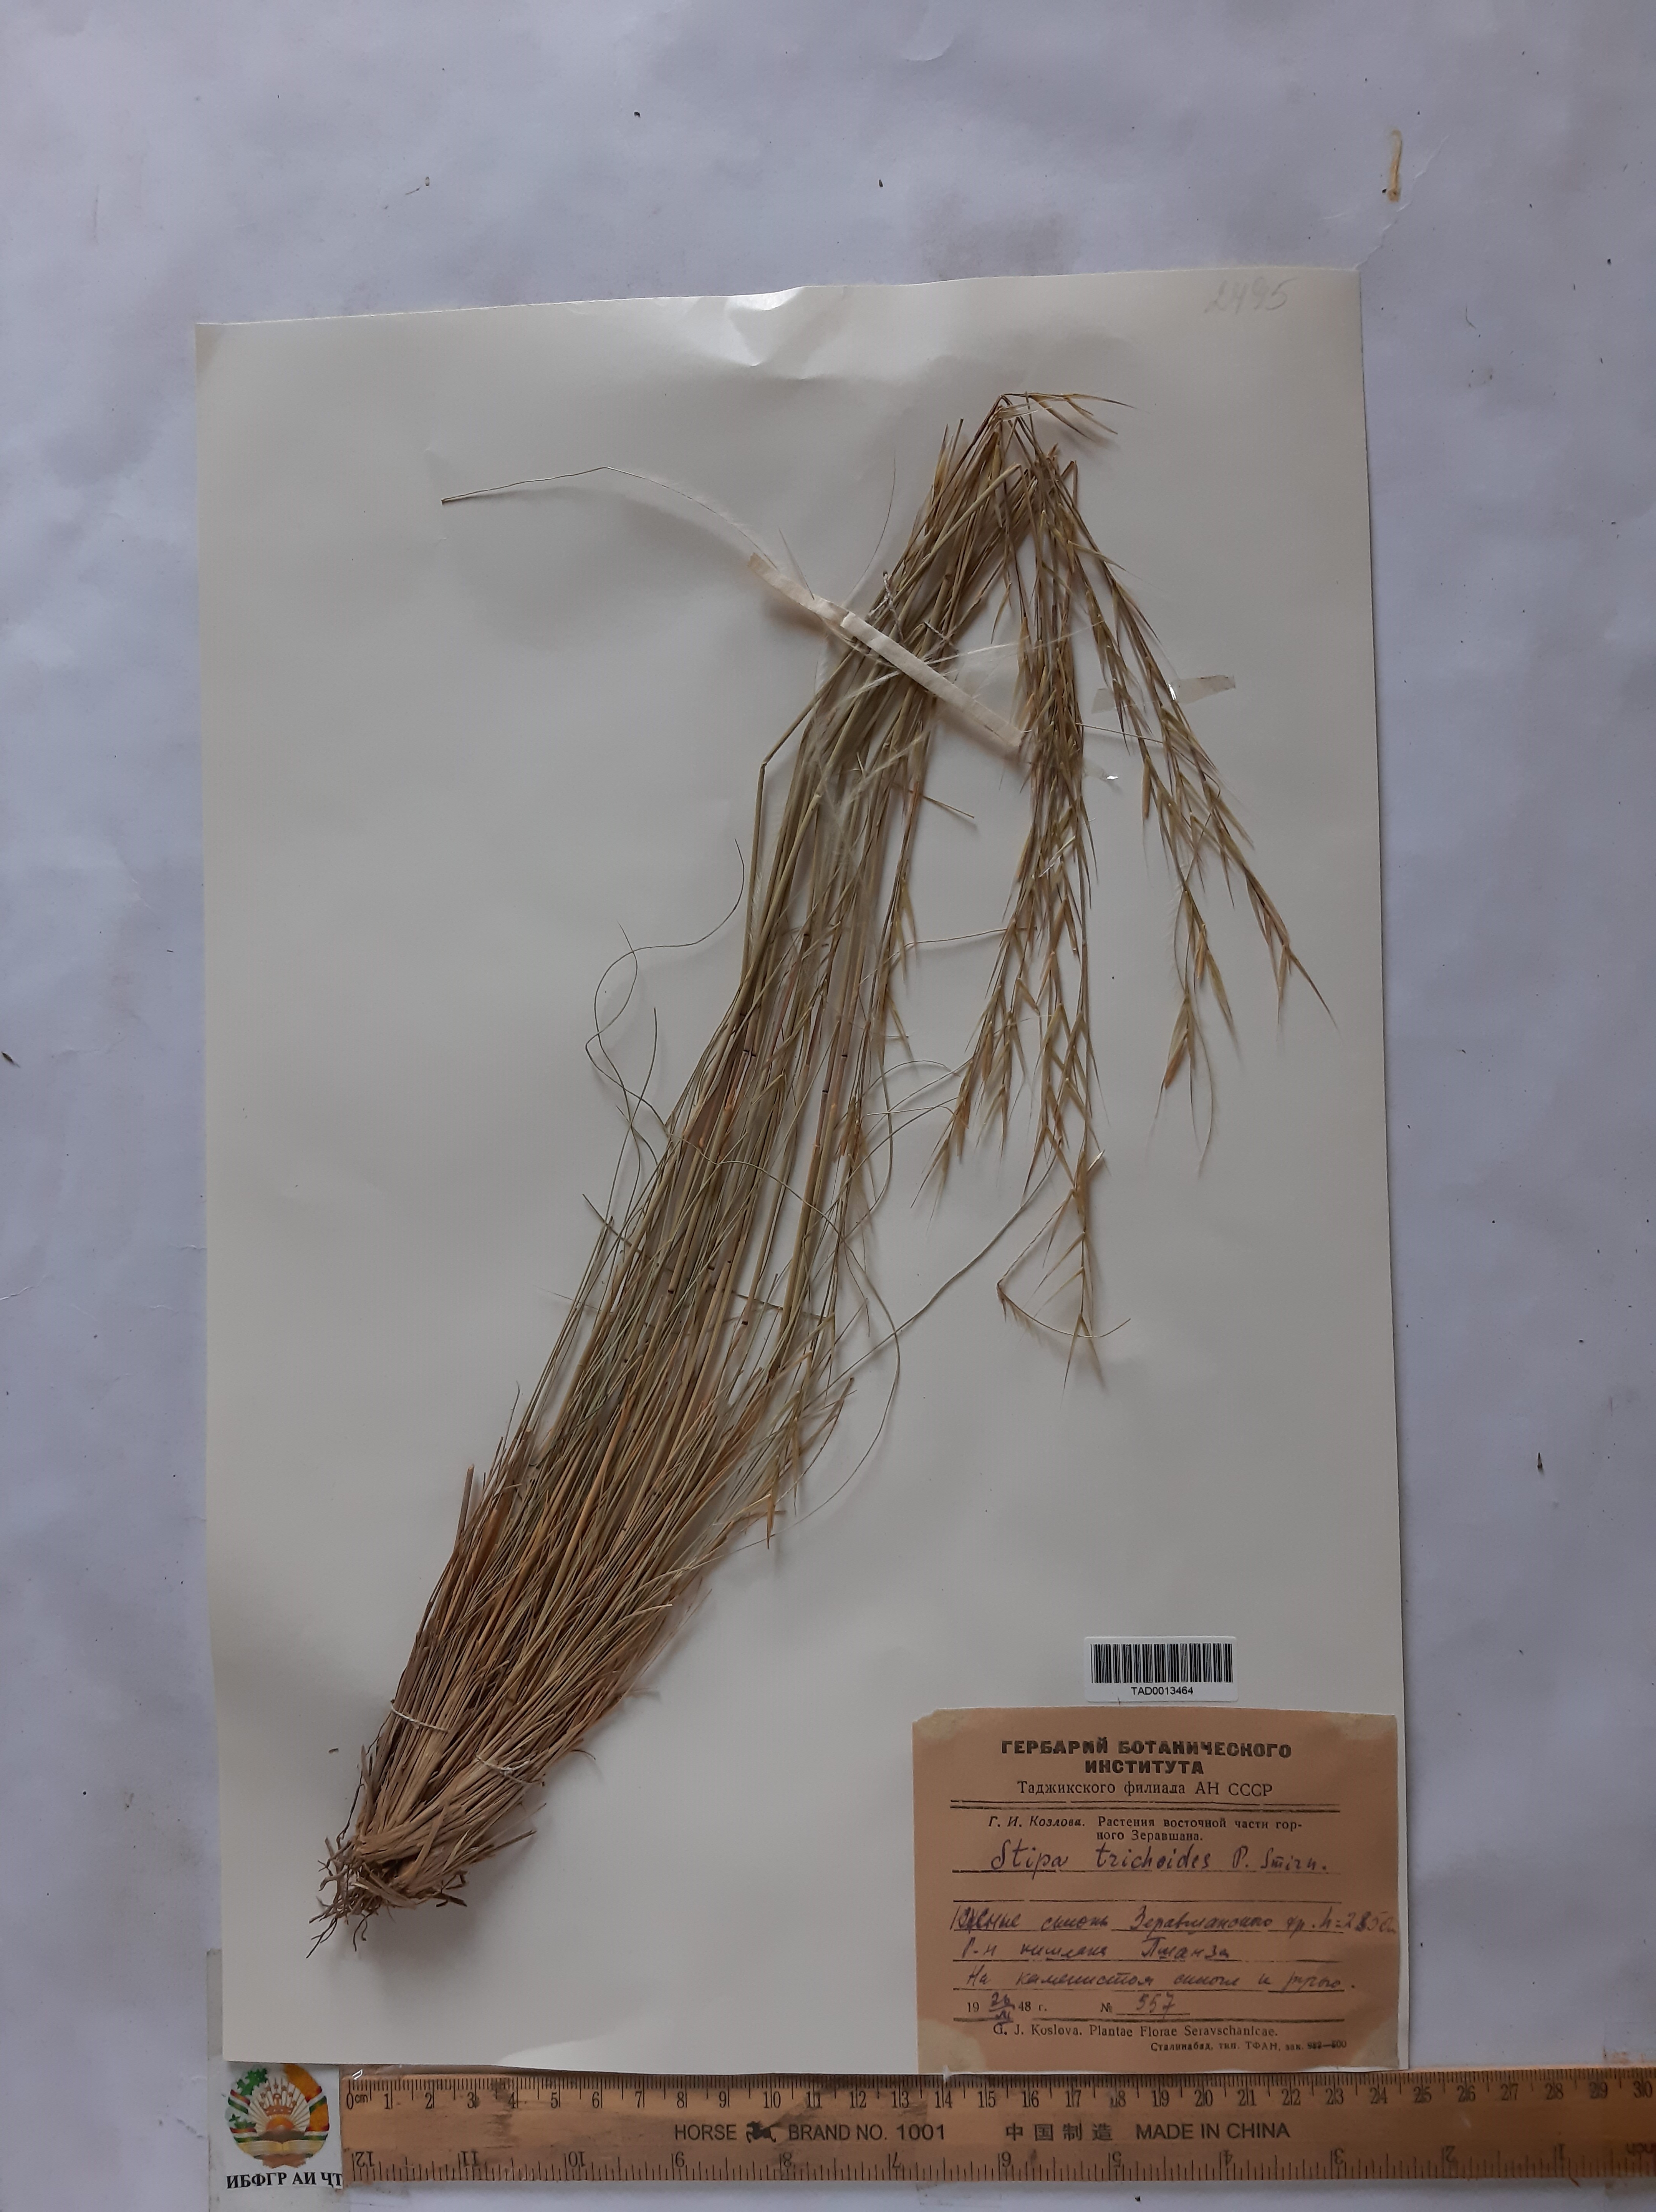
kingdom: Plantae
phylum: Tracheophyta
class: Liliopsida
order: Poales
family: Poaceae
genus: Stipa
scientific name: Stipa trichoides
